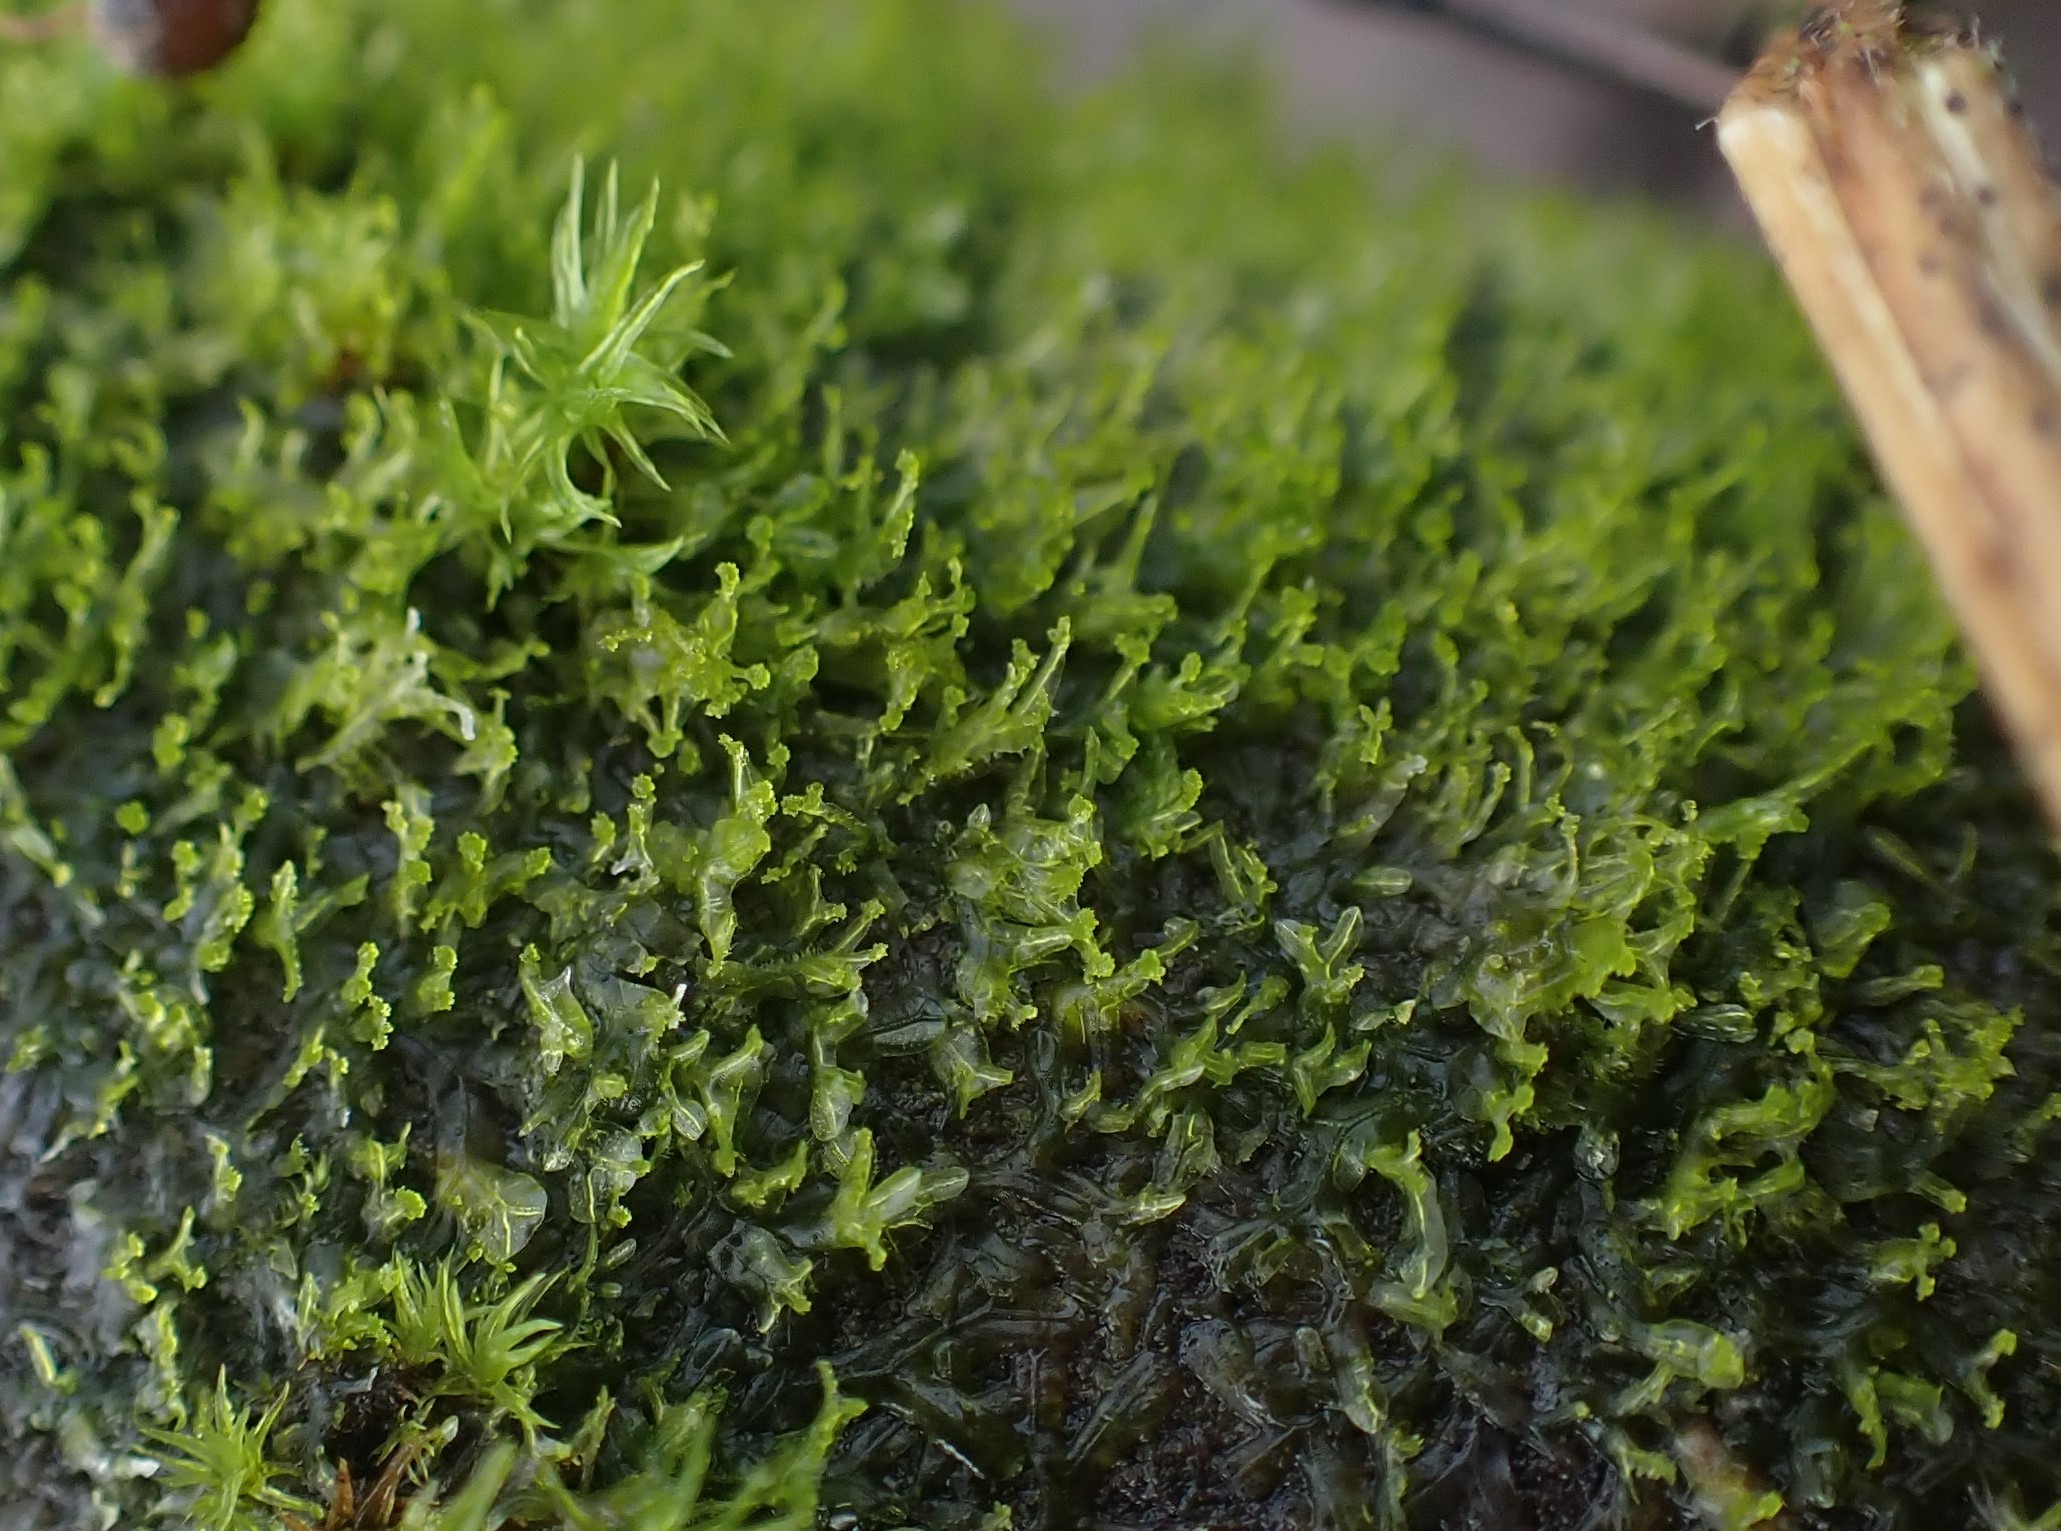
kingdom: Plantae
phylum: Marchantiophyta
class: Jungermanniopsida
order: Metzgeriales
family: Aneuraceae
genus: Riccardia
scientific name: Riccardia palmata
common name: Blågrøn gaffelløv
